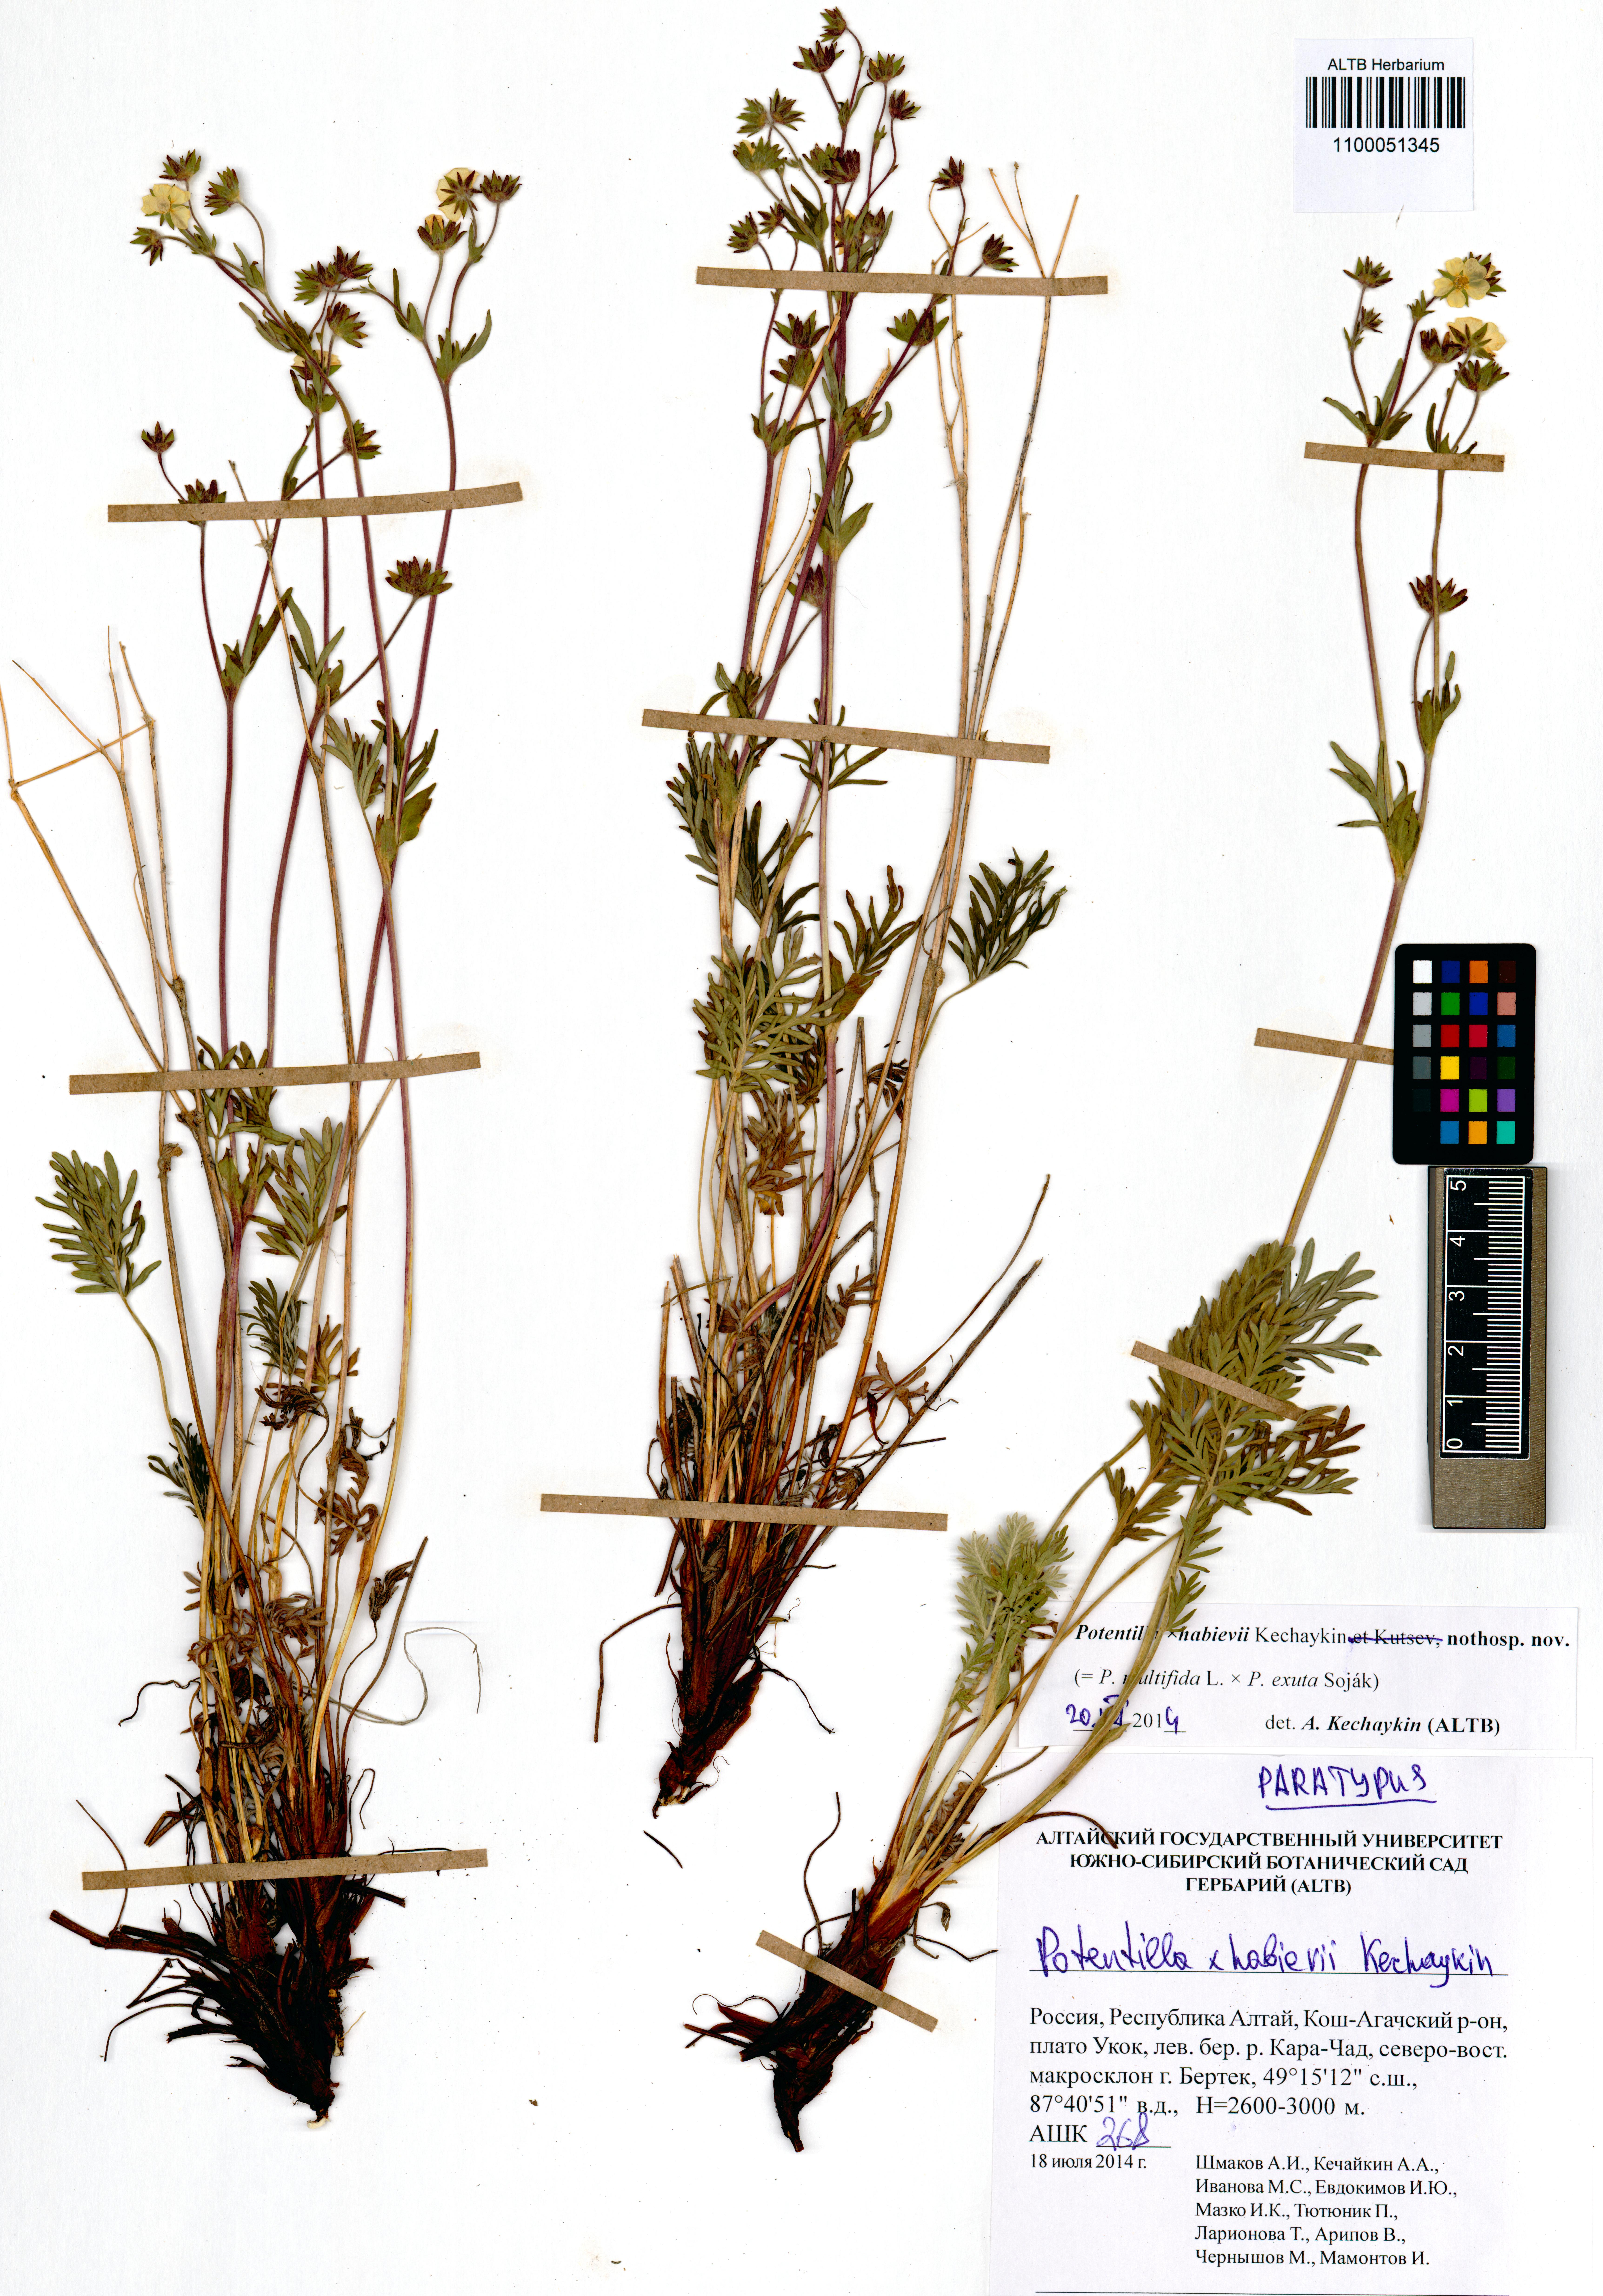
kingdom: Plantae
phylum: Tracheophyta
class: Magnoliopsida
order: Rosales
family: Rosaceae
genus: Potentilla
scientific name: Potentilla habievii
